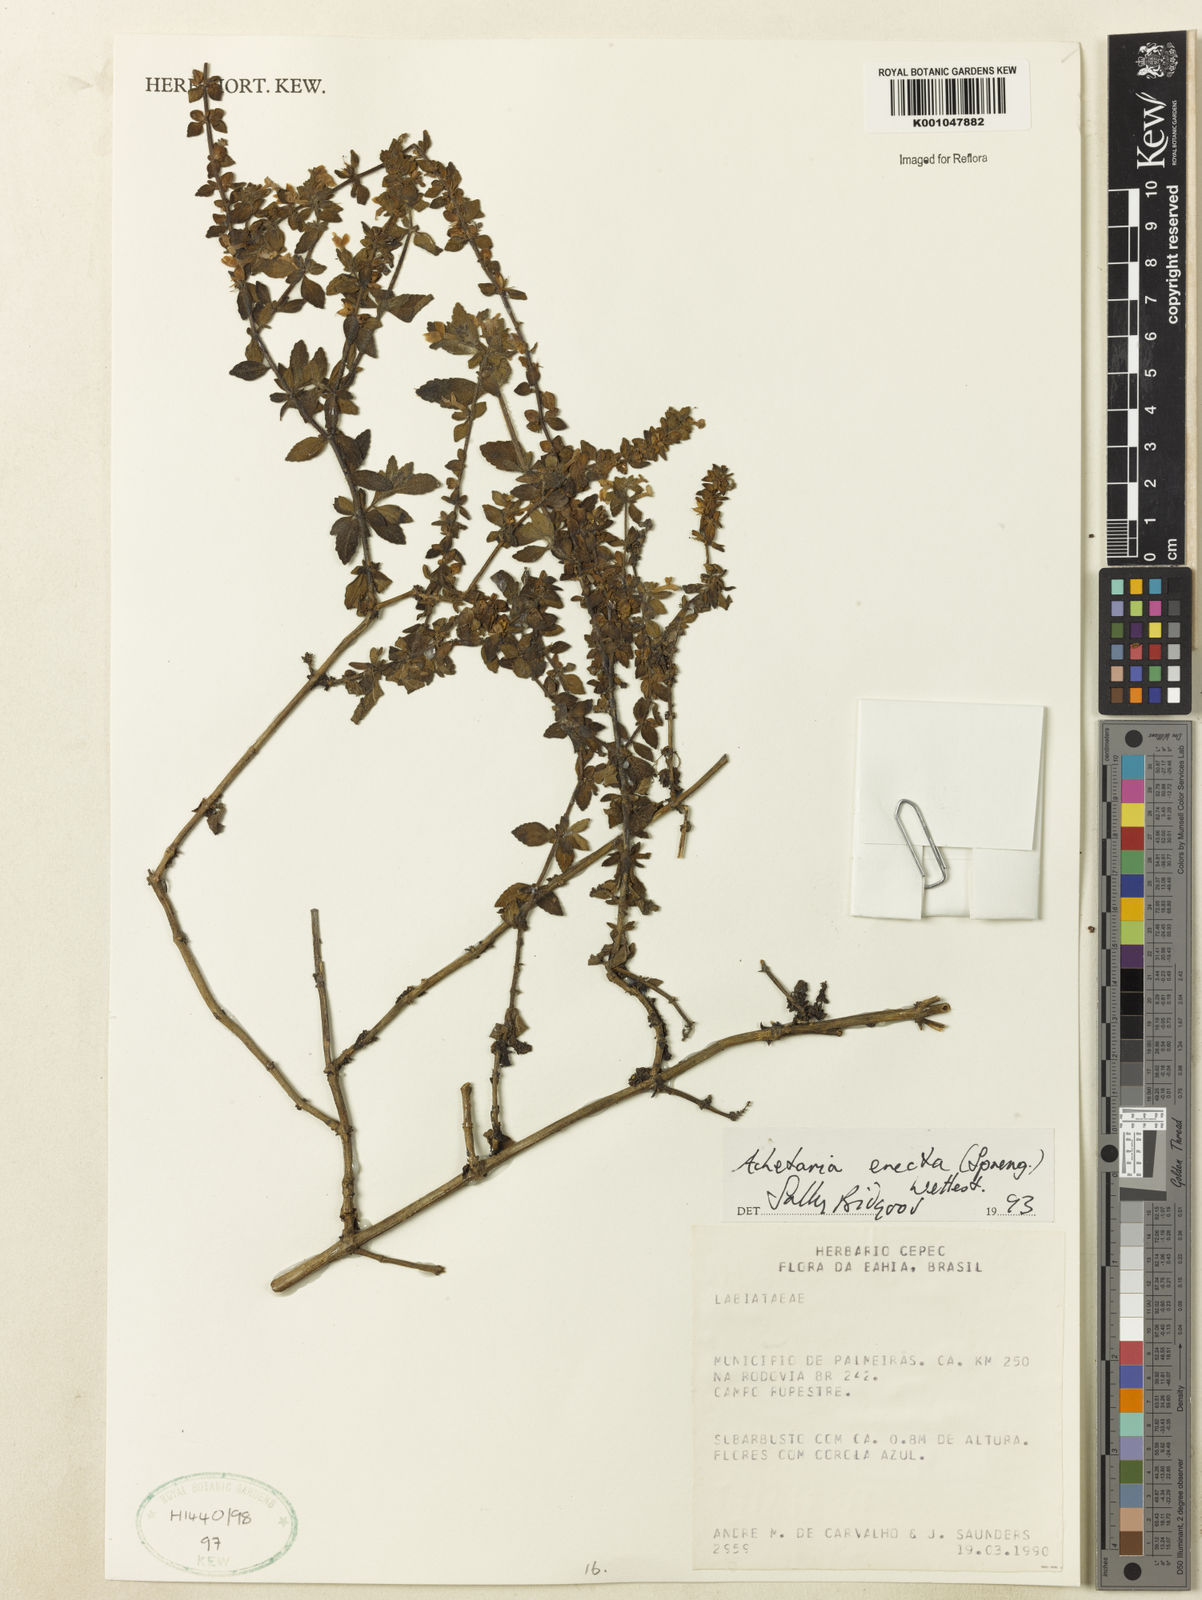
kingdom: Plantae
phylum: Tracheophyta
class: Magnoliopsida
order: Lamiales
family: Plantaginaceae
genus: Matourea
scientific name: Matourea erecta
